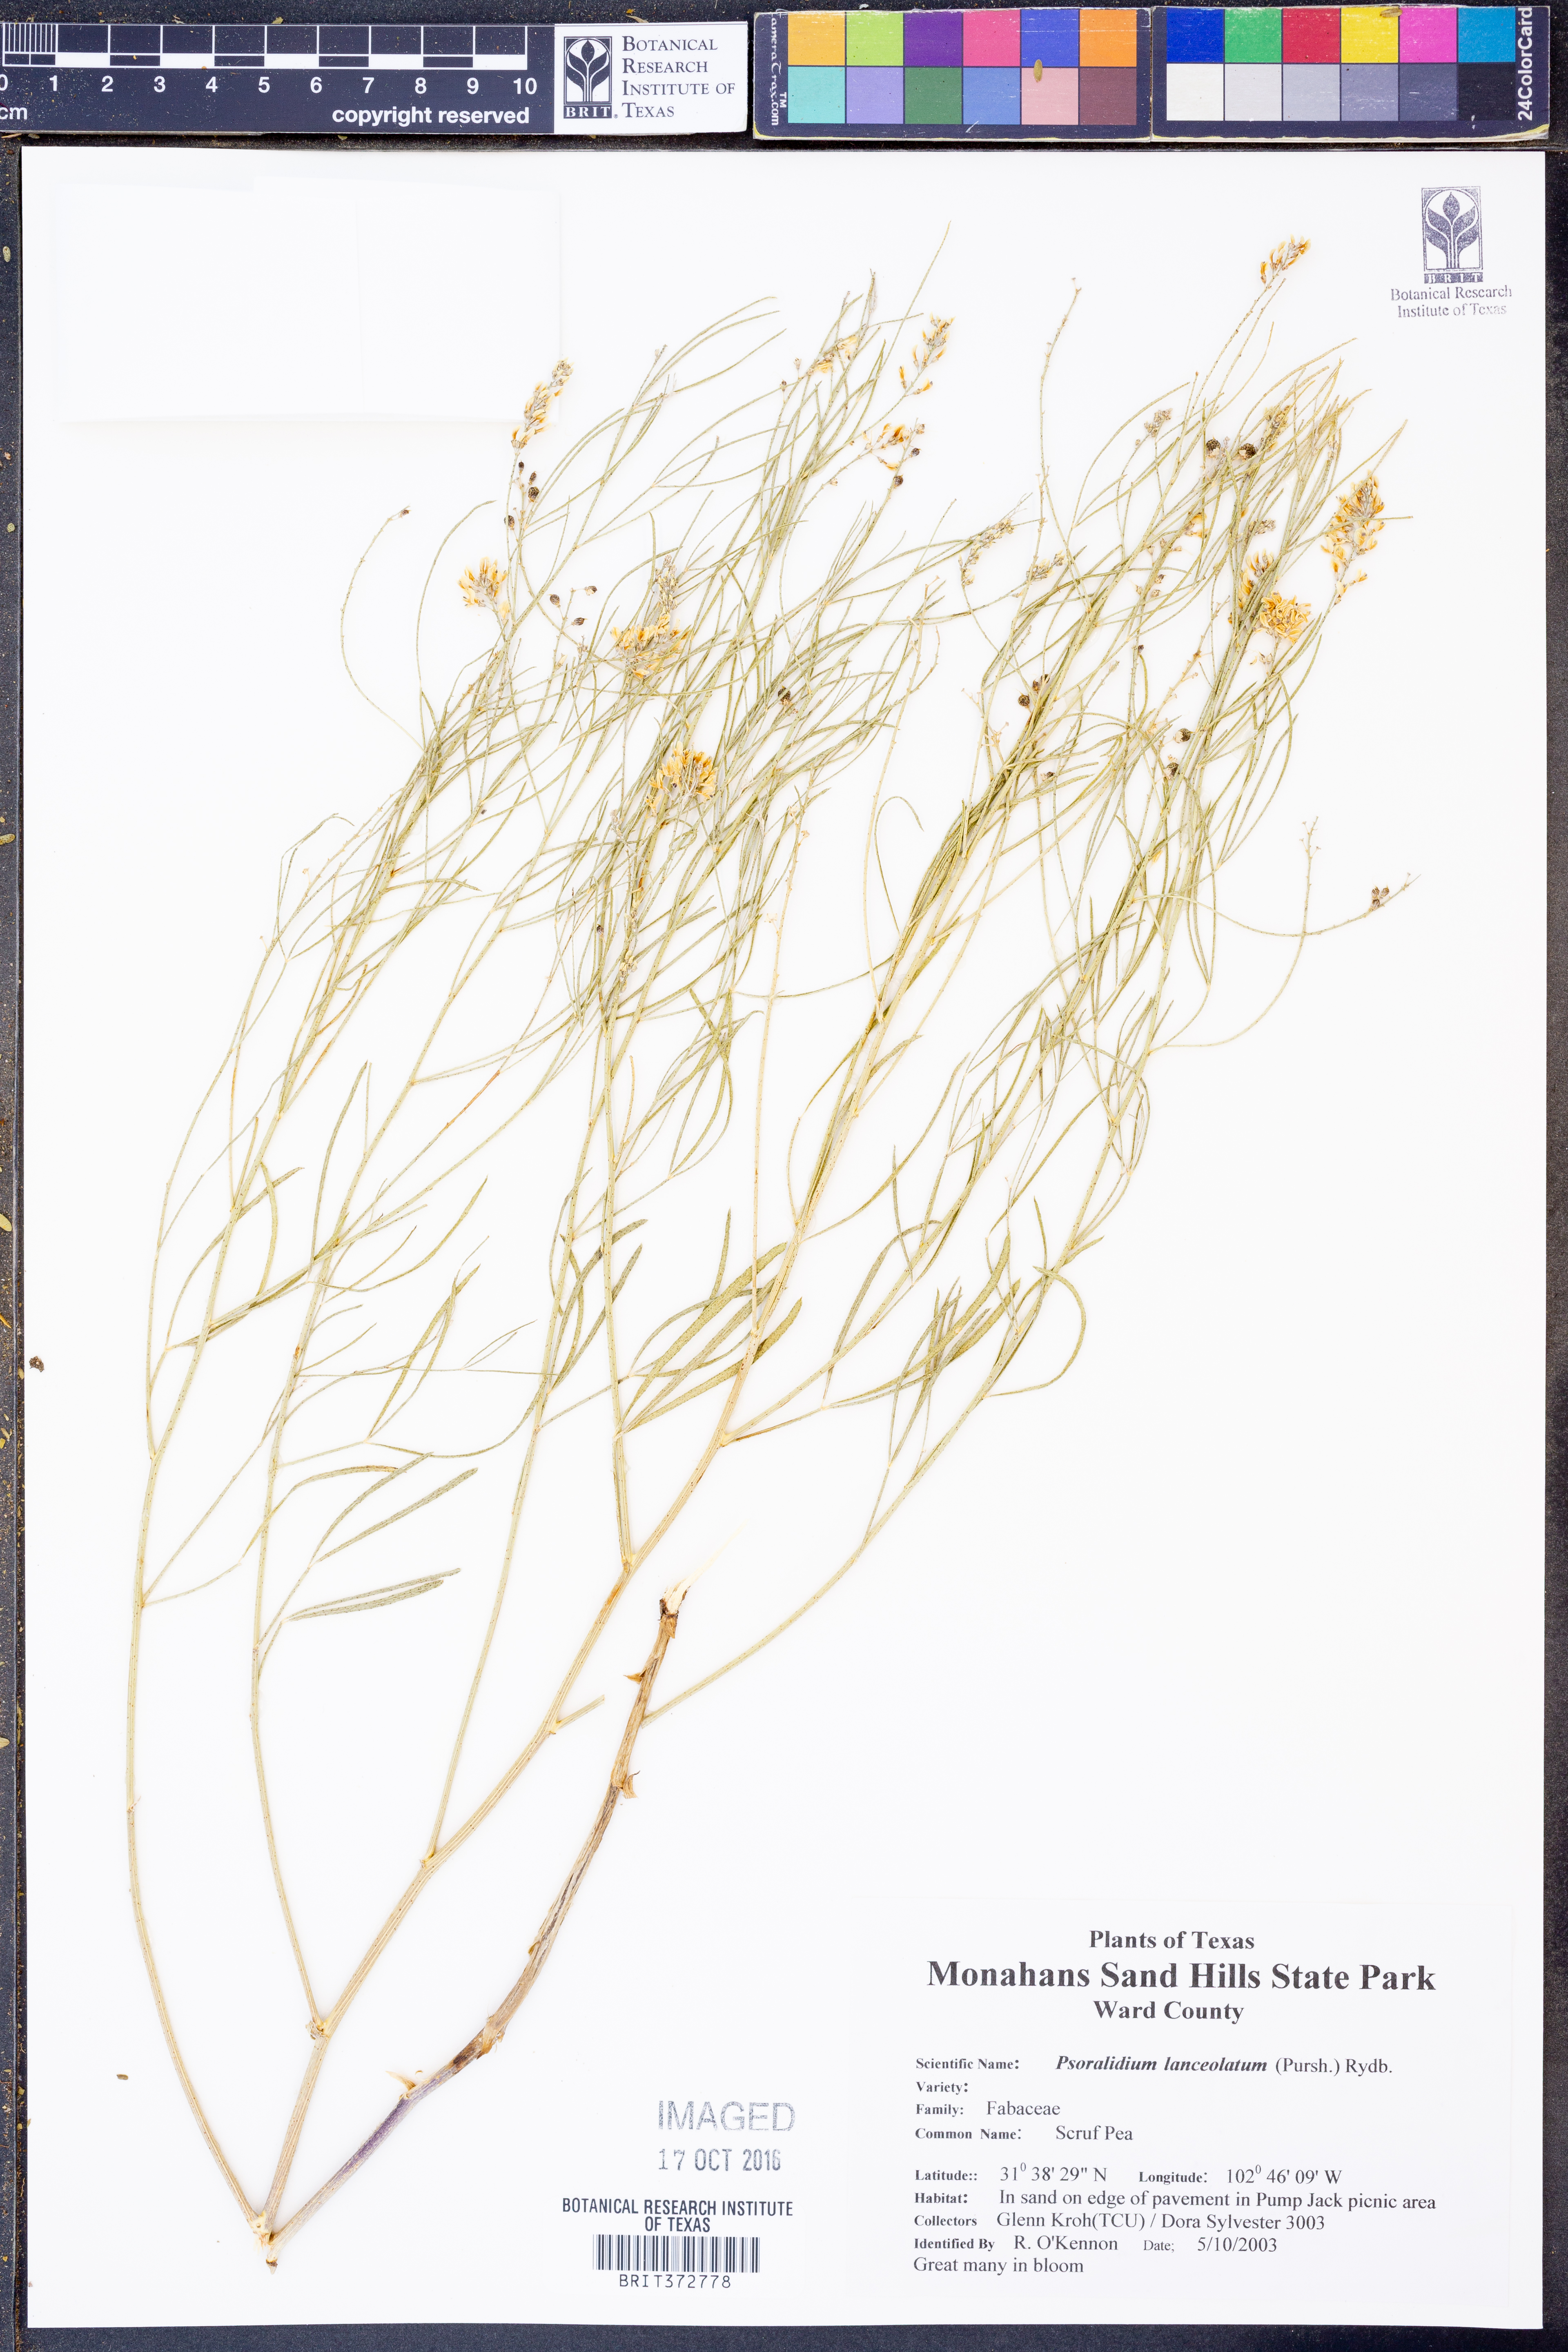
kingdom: Plantae
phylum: Tracheophyta
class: Magnoliopsida
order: Fabales
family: Fabaceae
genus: Ladeania
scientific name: Ladeania lanceolata
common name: Dune scurf-pea
